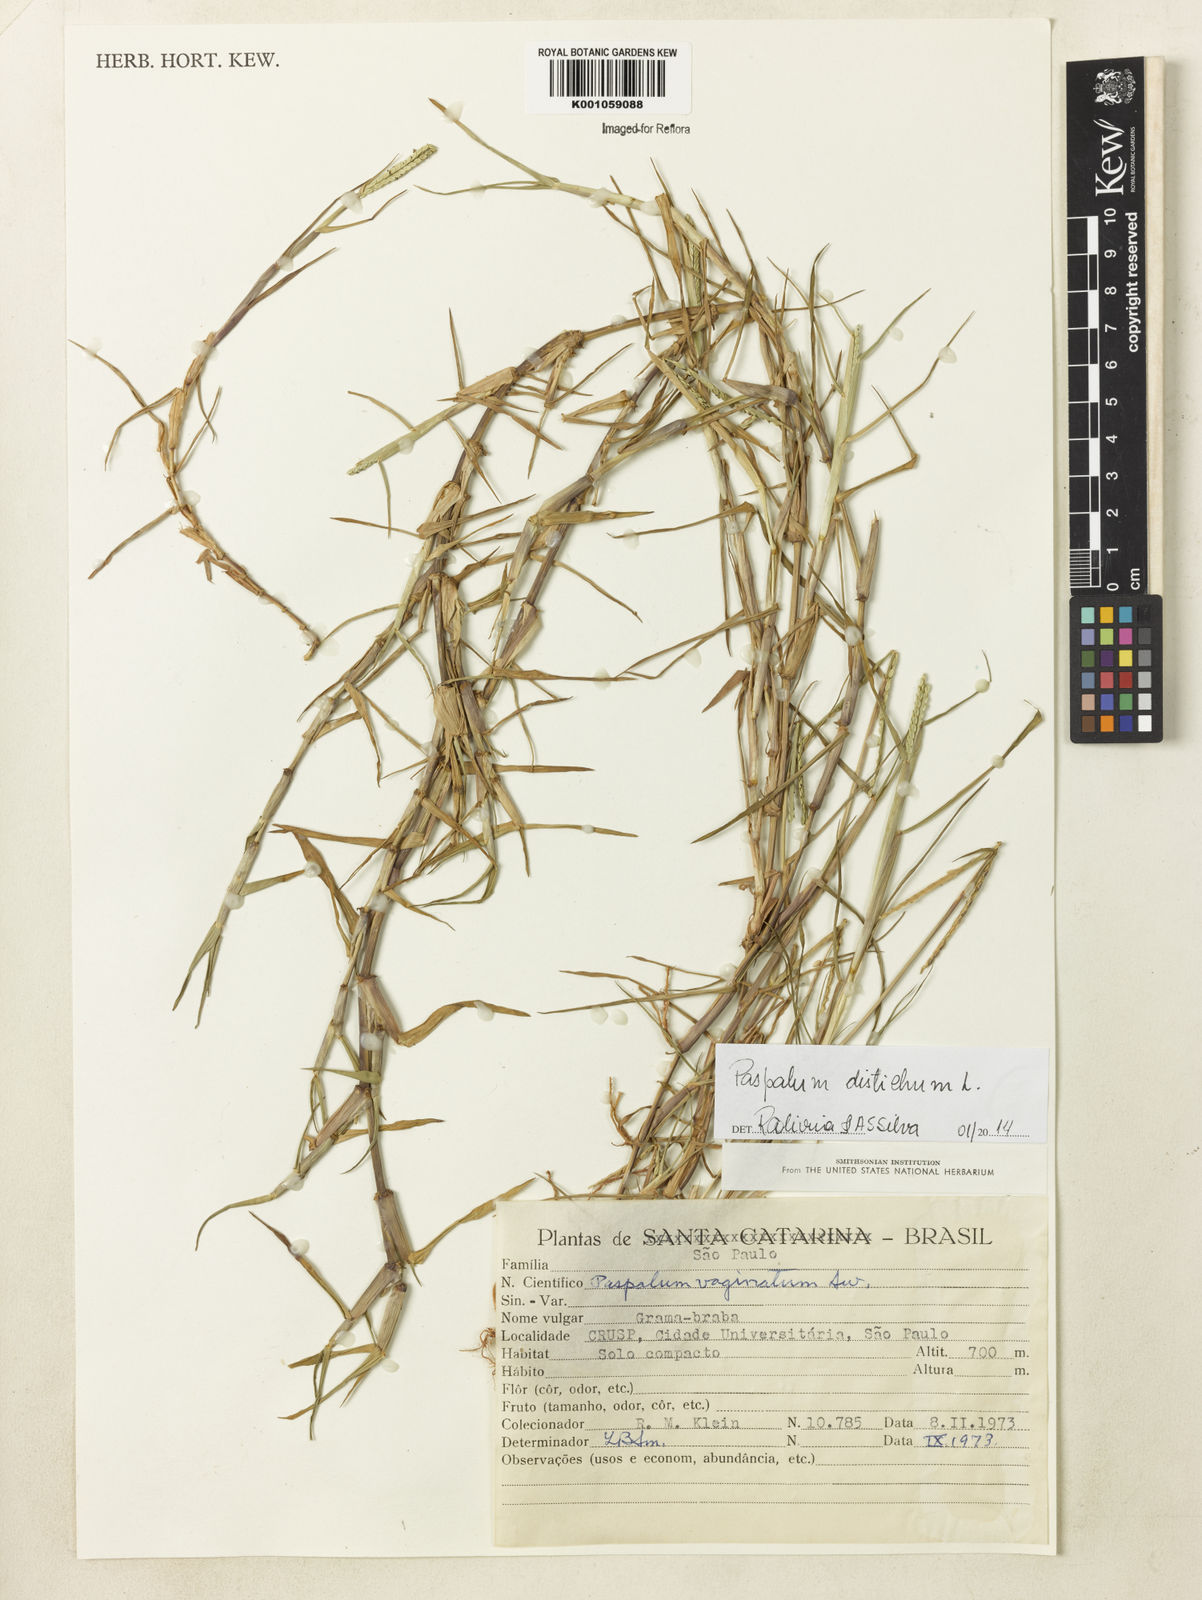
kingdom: Plantae
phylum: Tracheophyta
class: Liliopsida
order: Poales
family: Poaceae
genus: Paspalum
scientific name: Paspalum distichum
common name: Knotgrass
